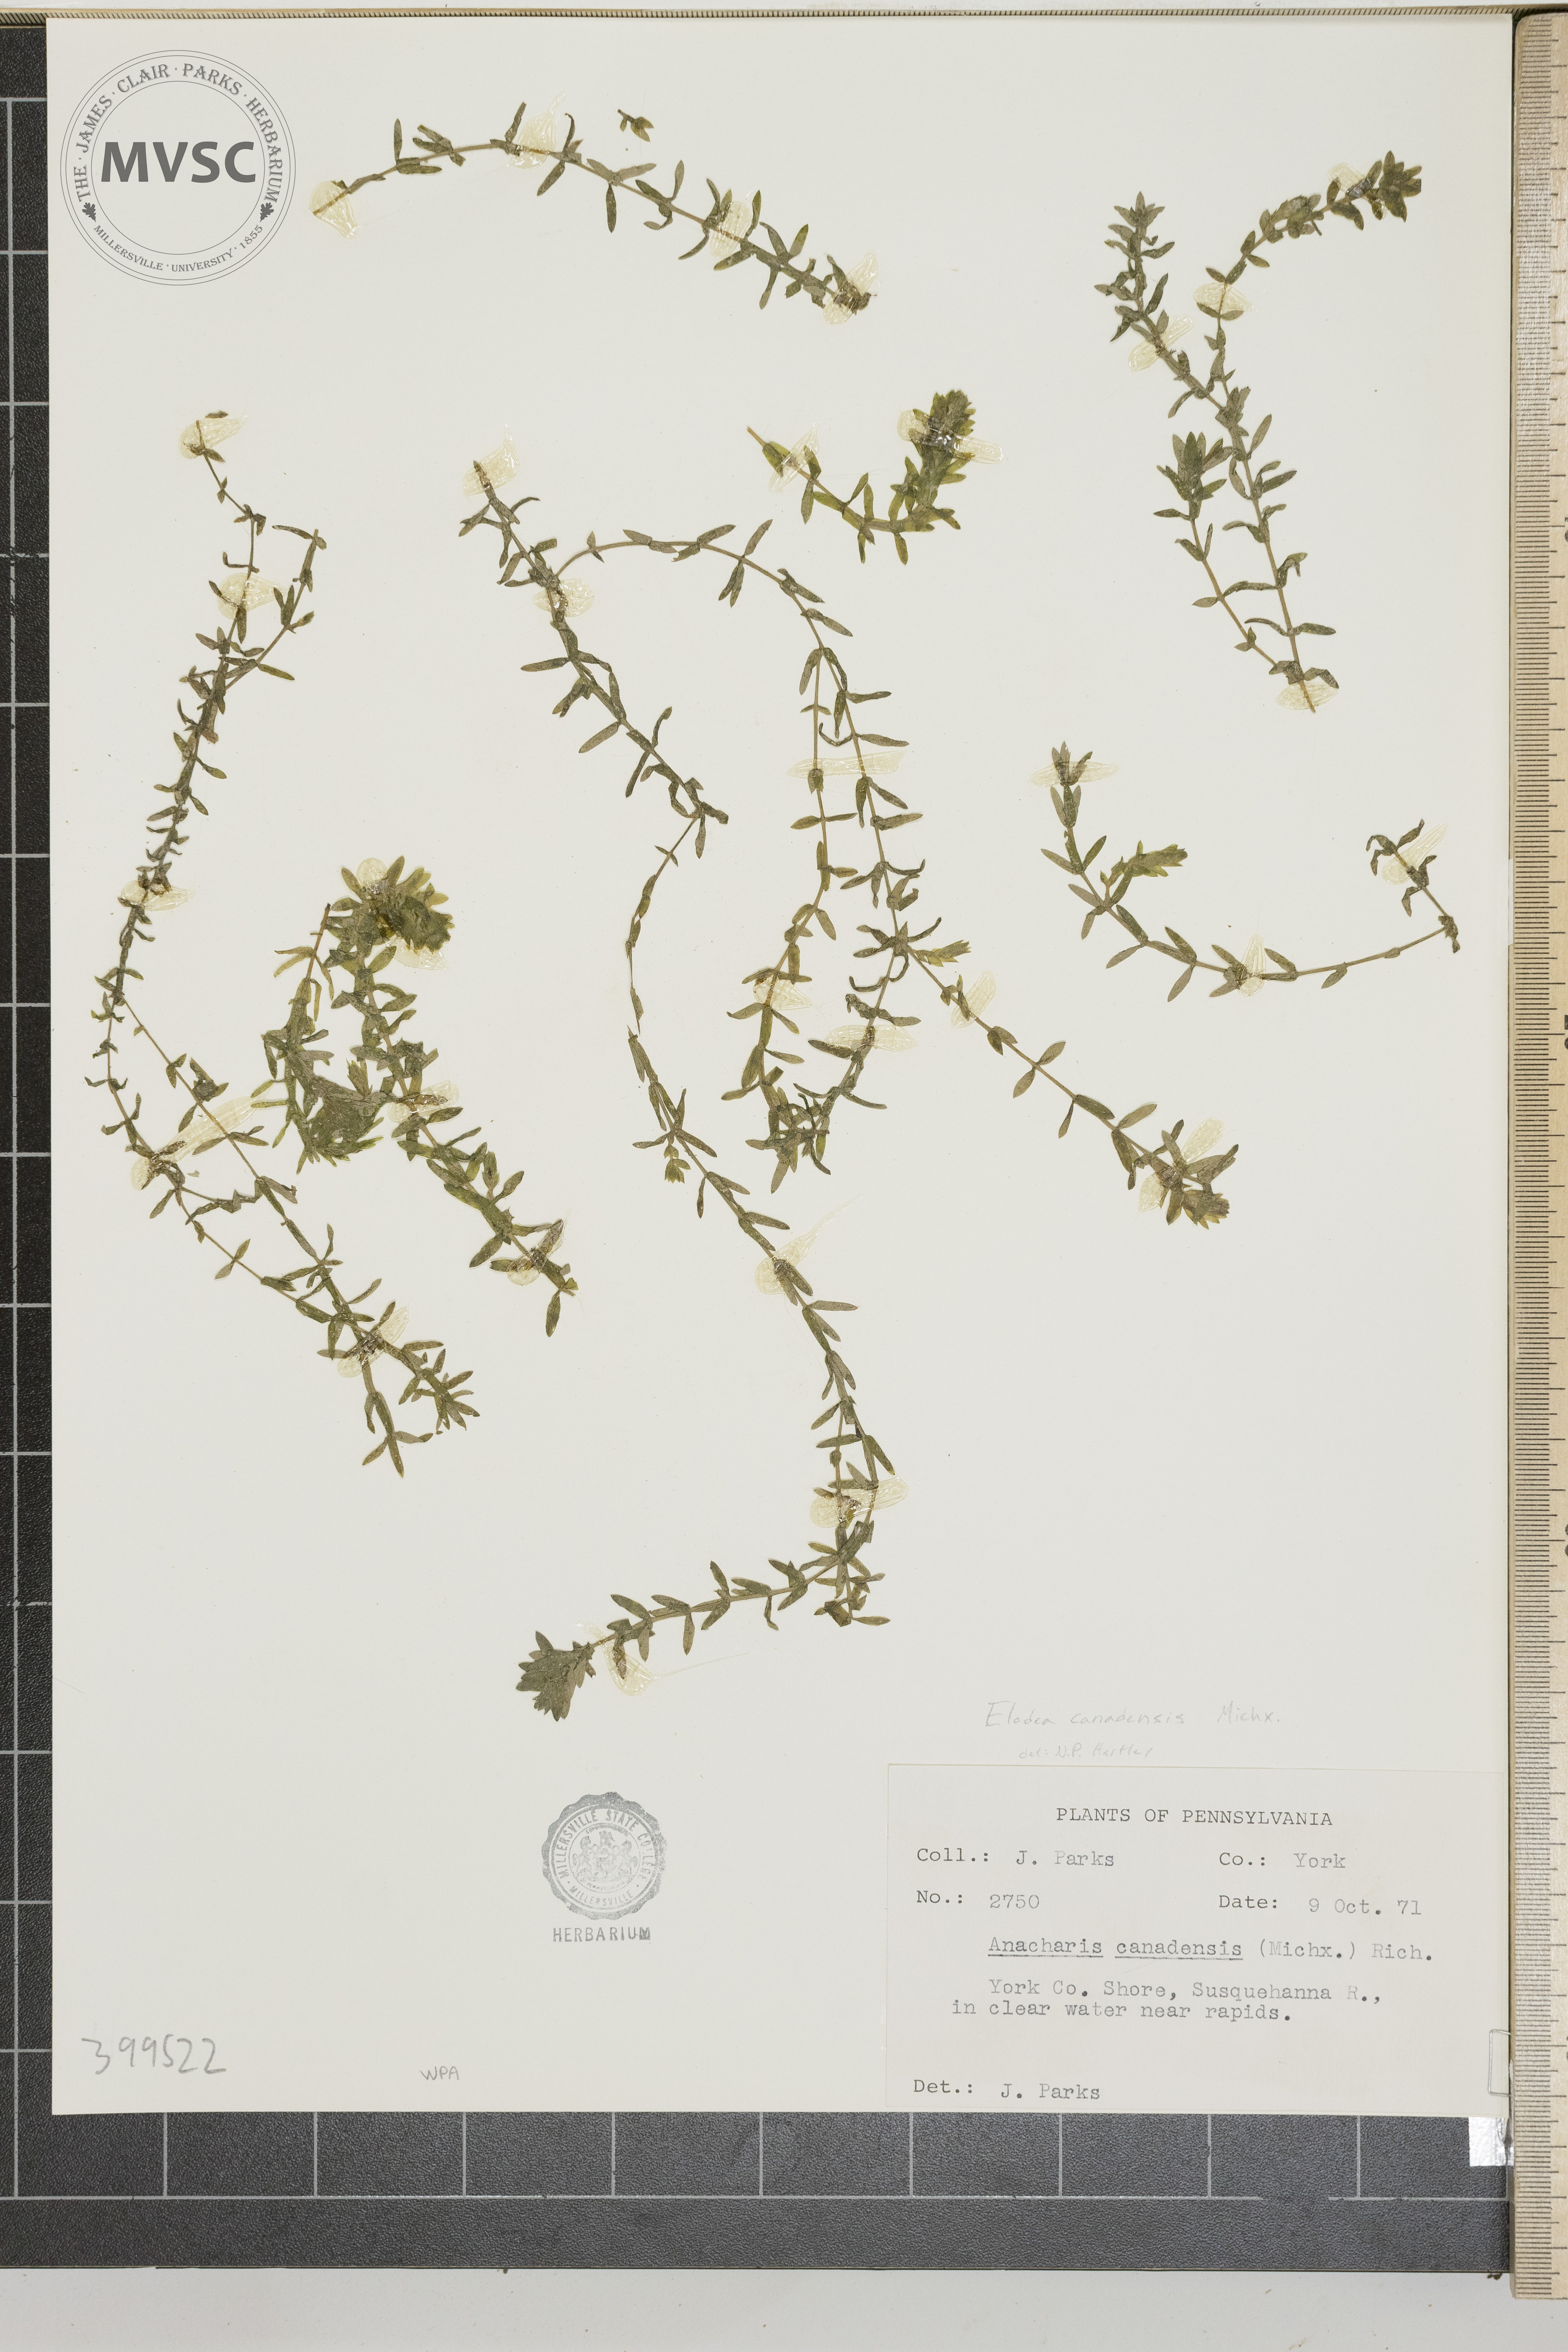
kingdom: Plantae
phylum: Tracheophyta
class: Liliopsida
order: Alismatales
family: Hydrocharitaceae
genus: Elodea
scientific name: Elodea canadensis
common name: waterweed
